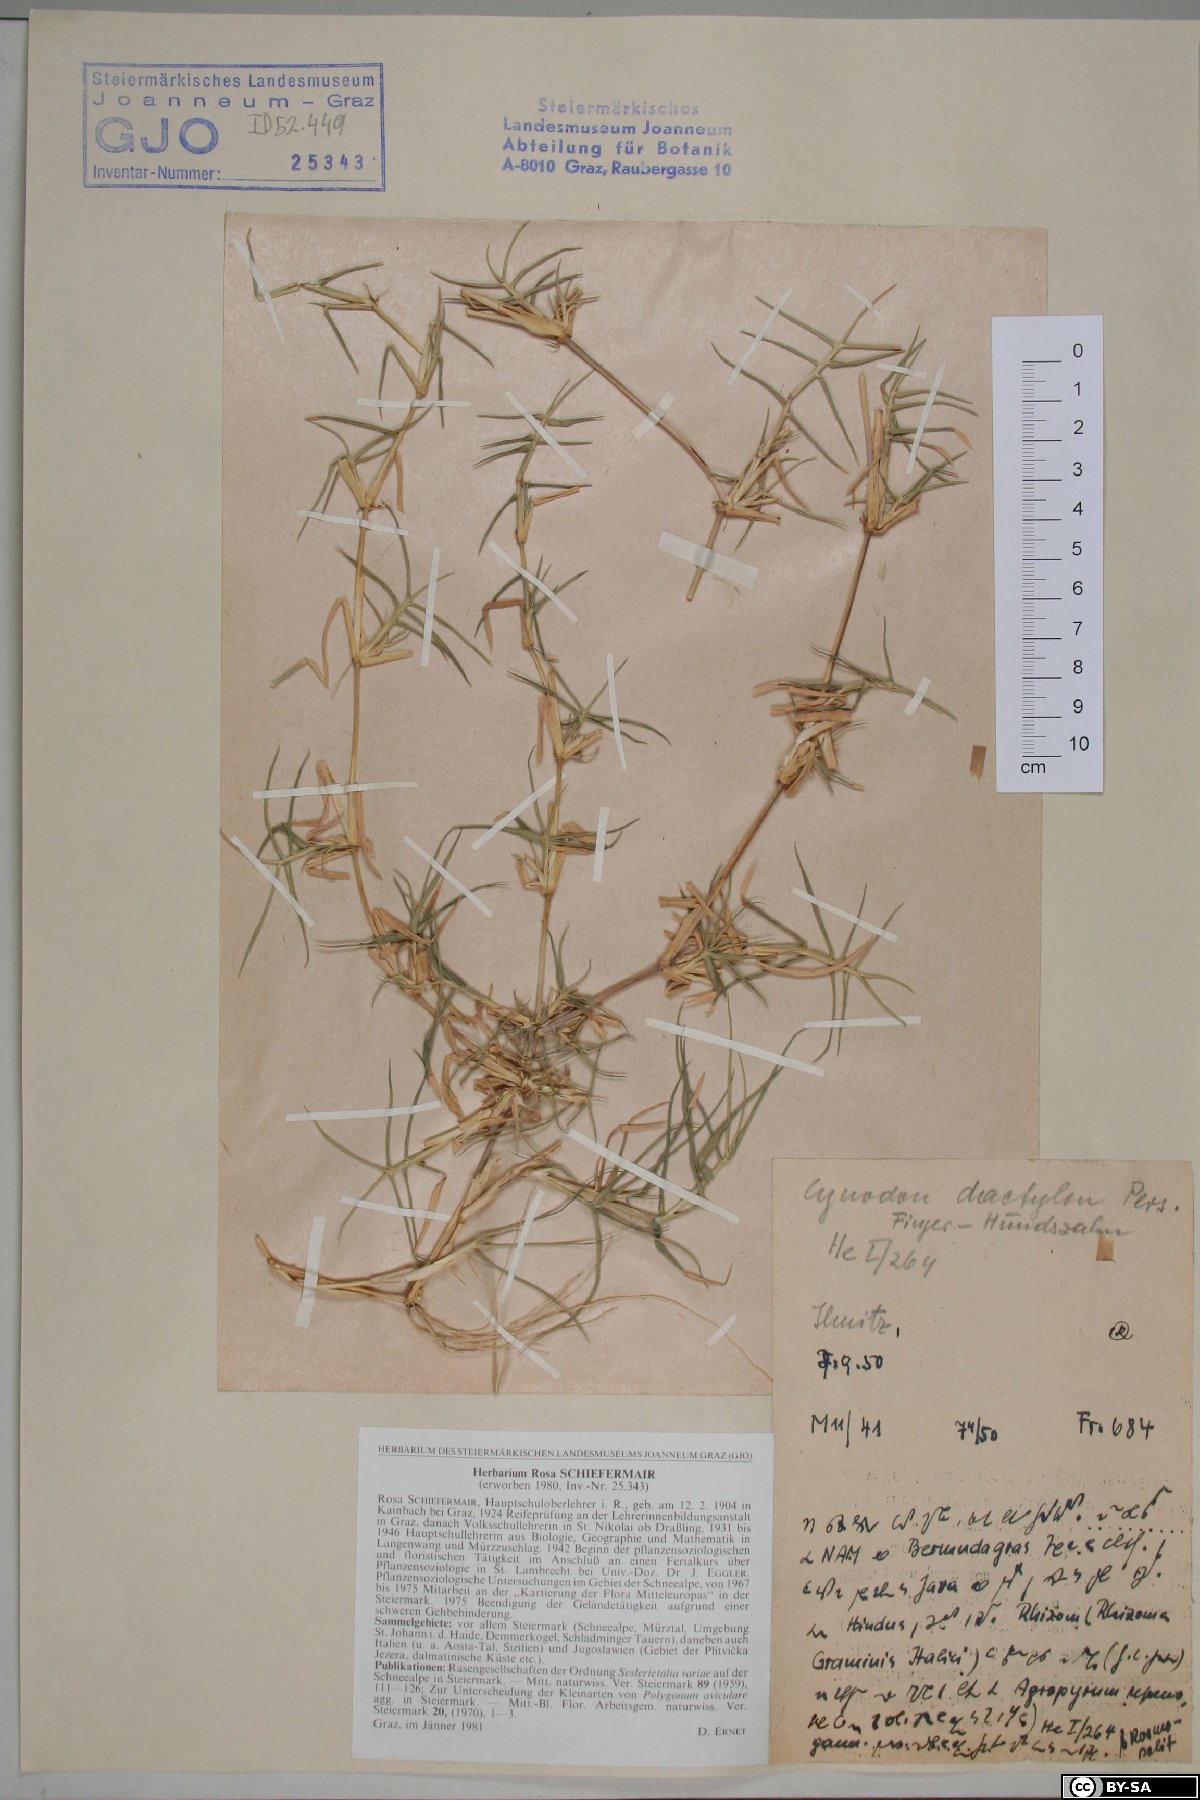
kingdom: Plantae
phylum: Tracheophyta
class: Liliopsida
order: Poales
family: Poaceae
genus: Cynodon
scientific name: Cynodon dactylon
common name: Bermuda grass
